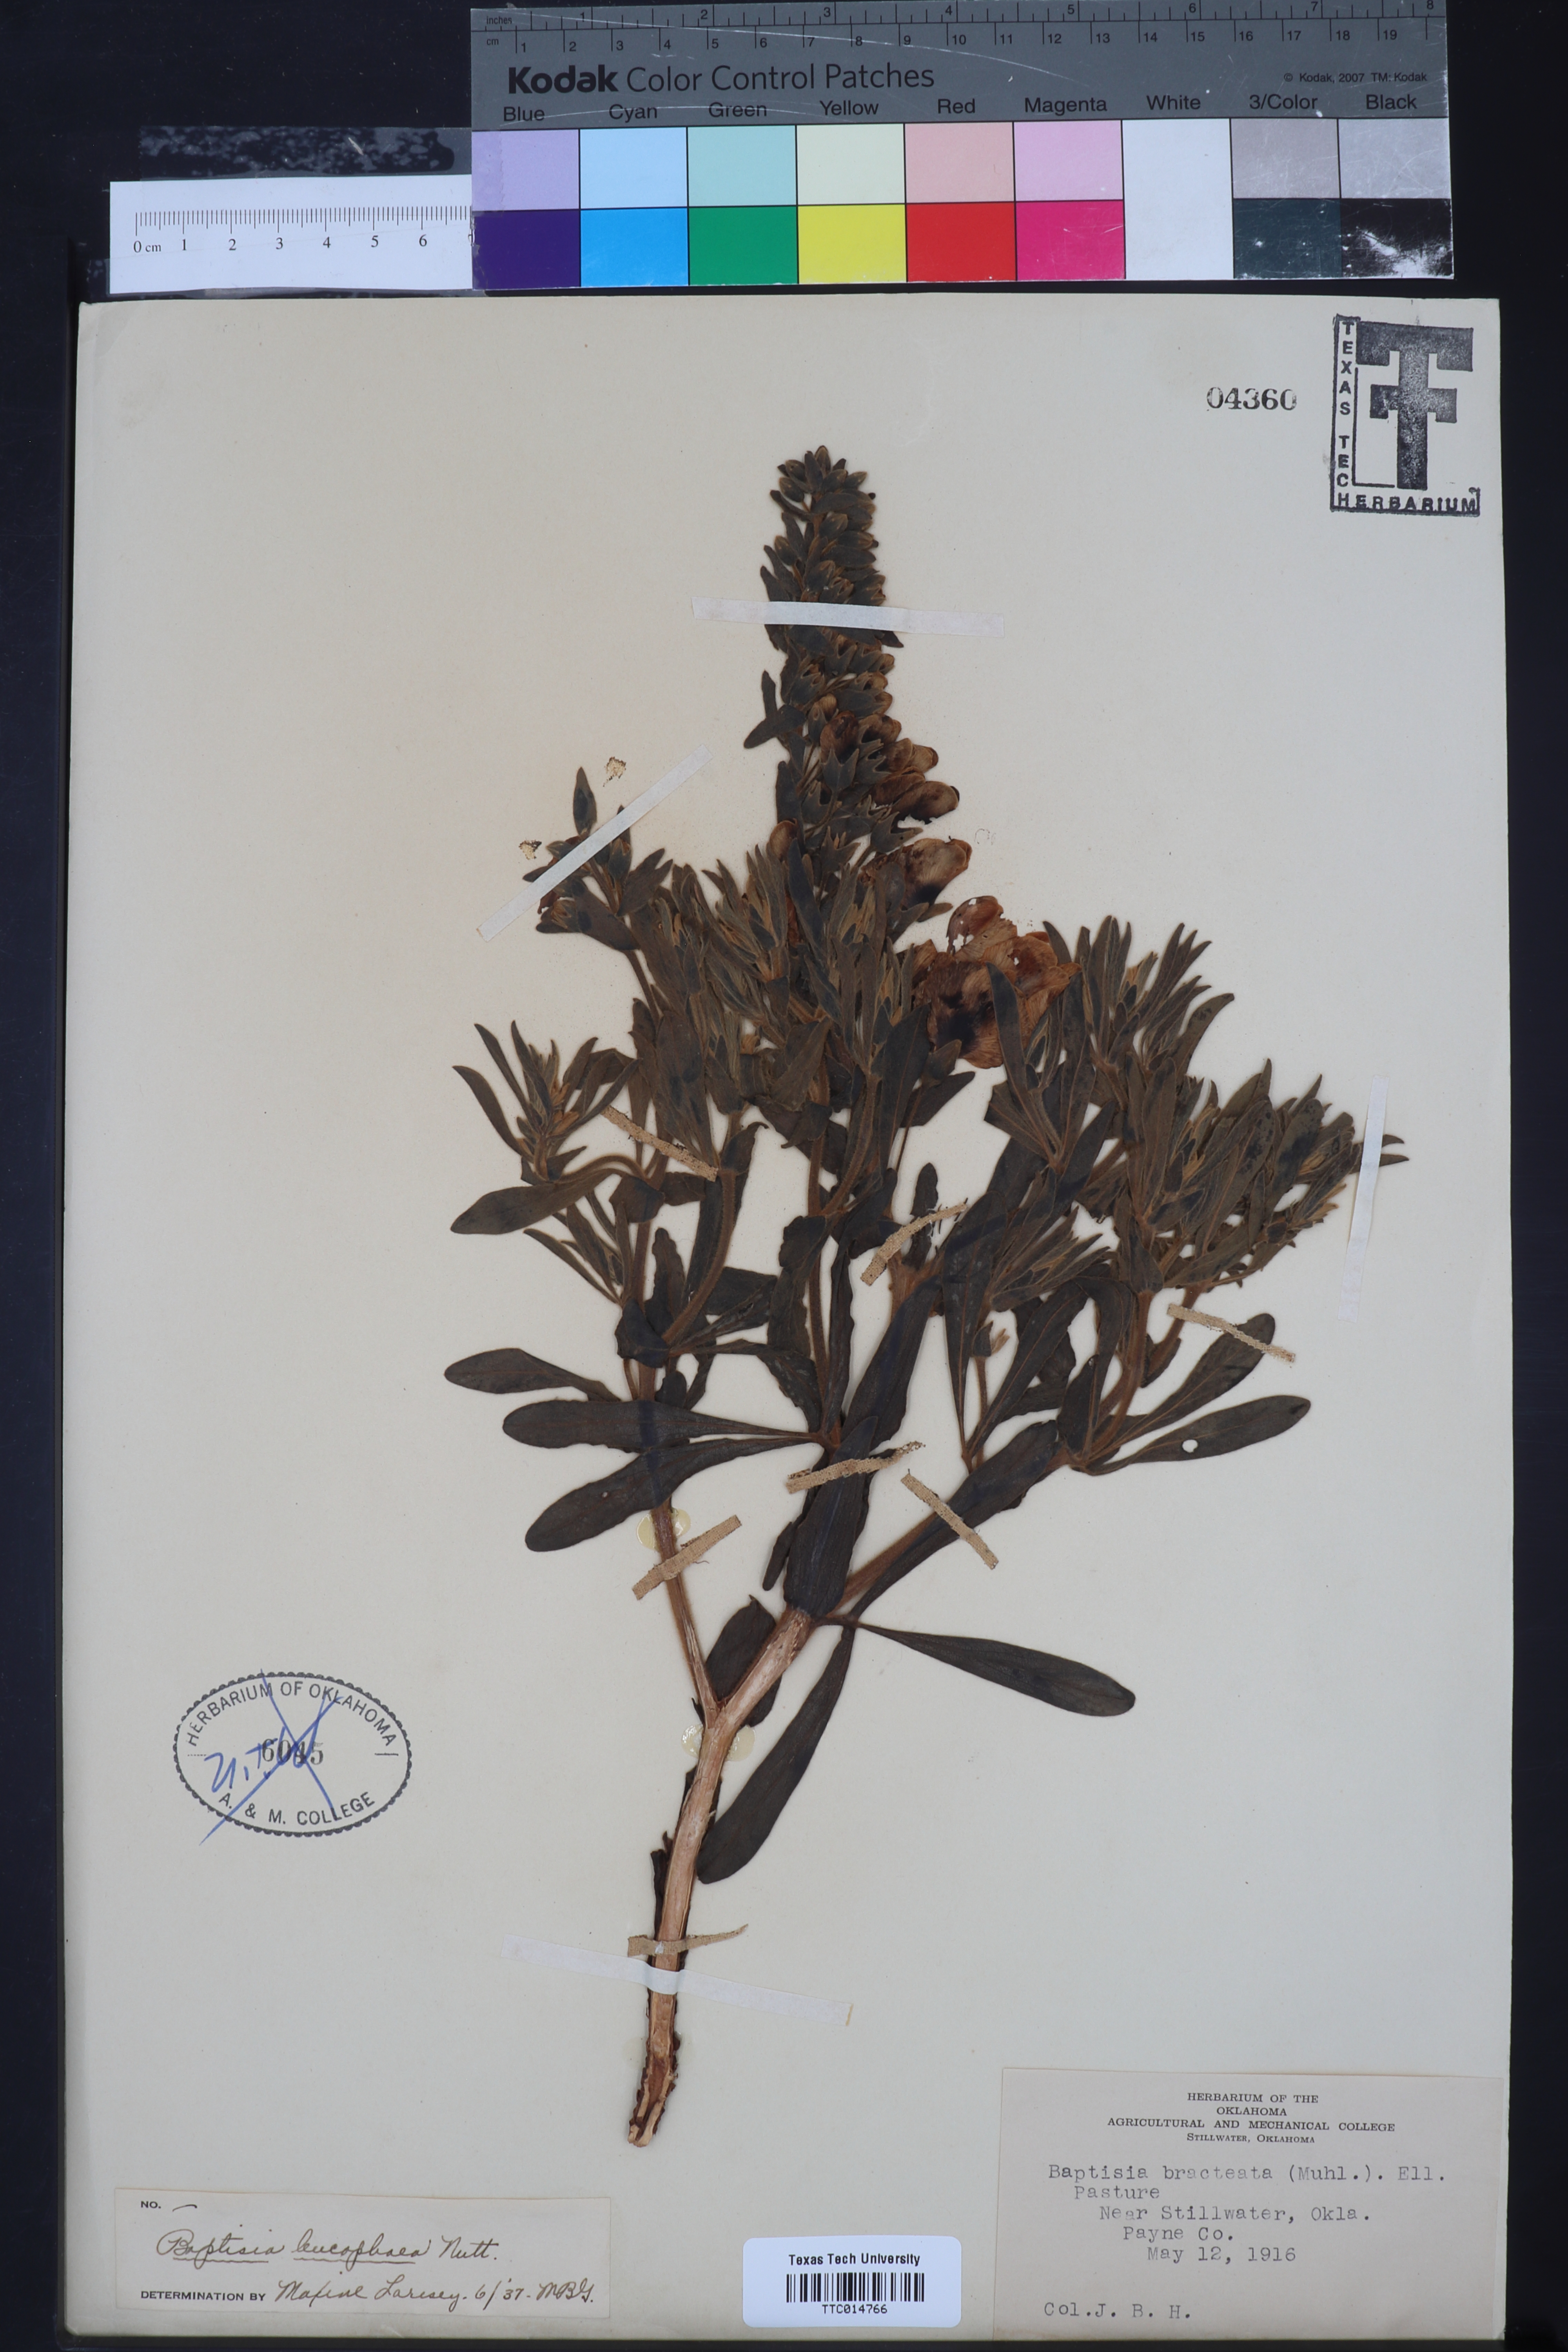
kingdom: Plantae
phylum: Tracheophyta
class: Magnoliopsida
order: Fabales
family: Fabaceae
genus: Baptisia
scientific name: Baptisia bracteata
